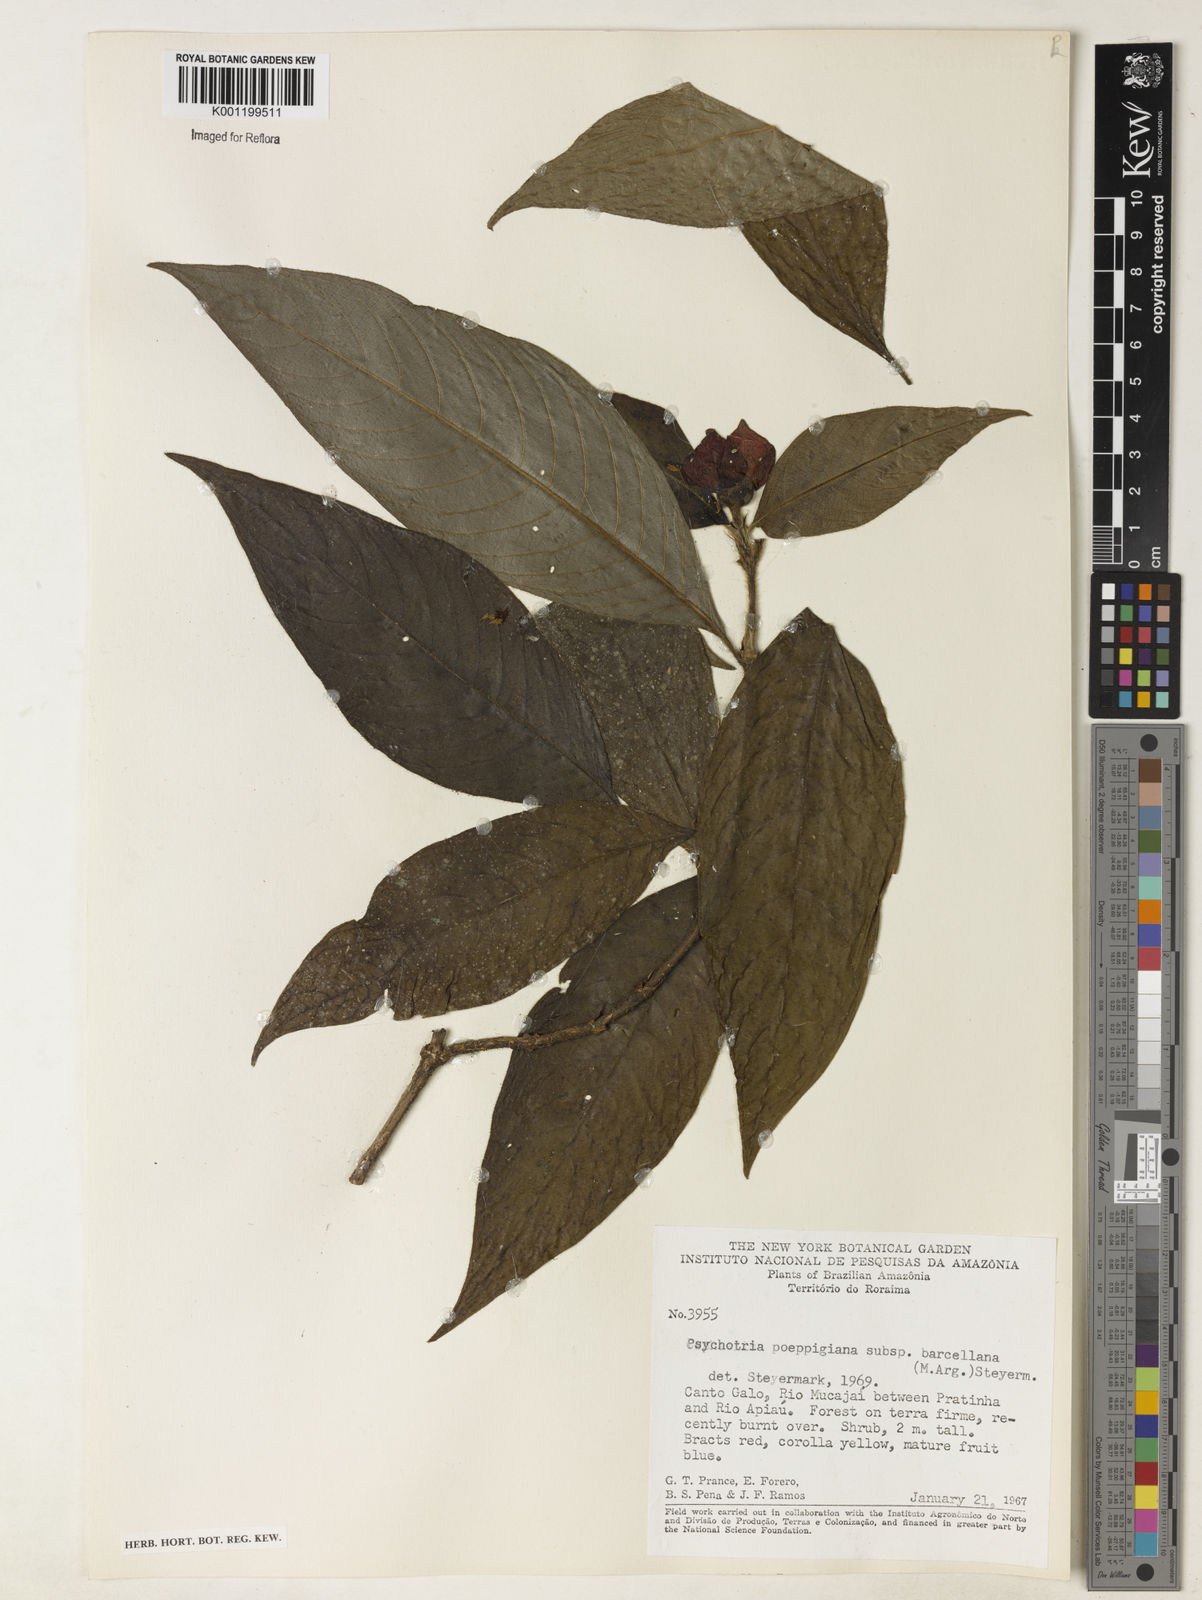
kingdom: Plantae
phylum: Tracheophyta
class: Magnoliopsida
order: Gentianales
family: Rubiaceae
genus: Psychotria
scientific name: Psychotria
